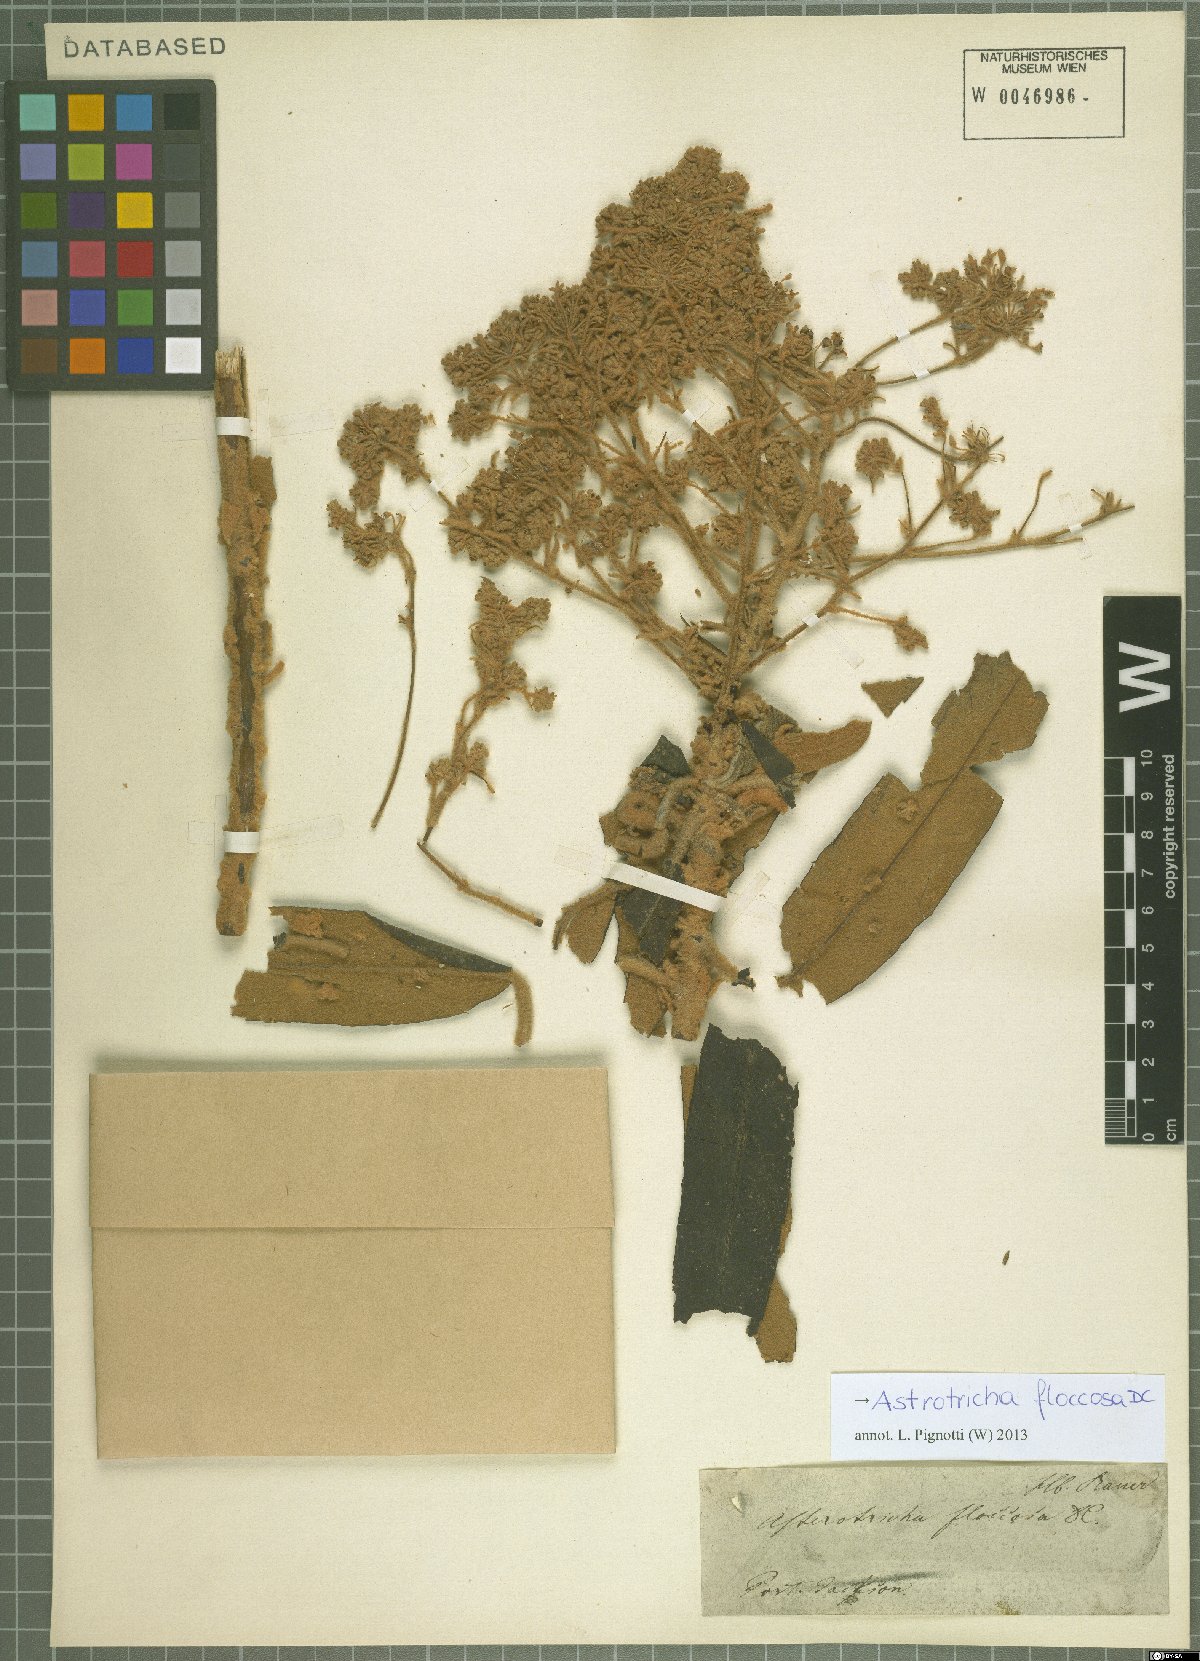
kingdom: Plantae
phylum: Tracheophyta
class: Magnoliopsida
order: Apiales
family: Araliaceae
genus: Astrotricha
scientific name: Astrotricha floccosa
